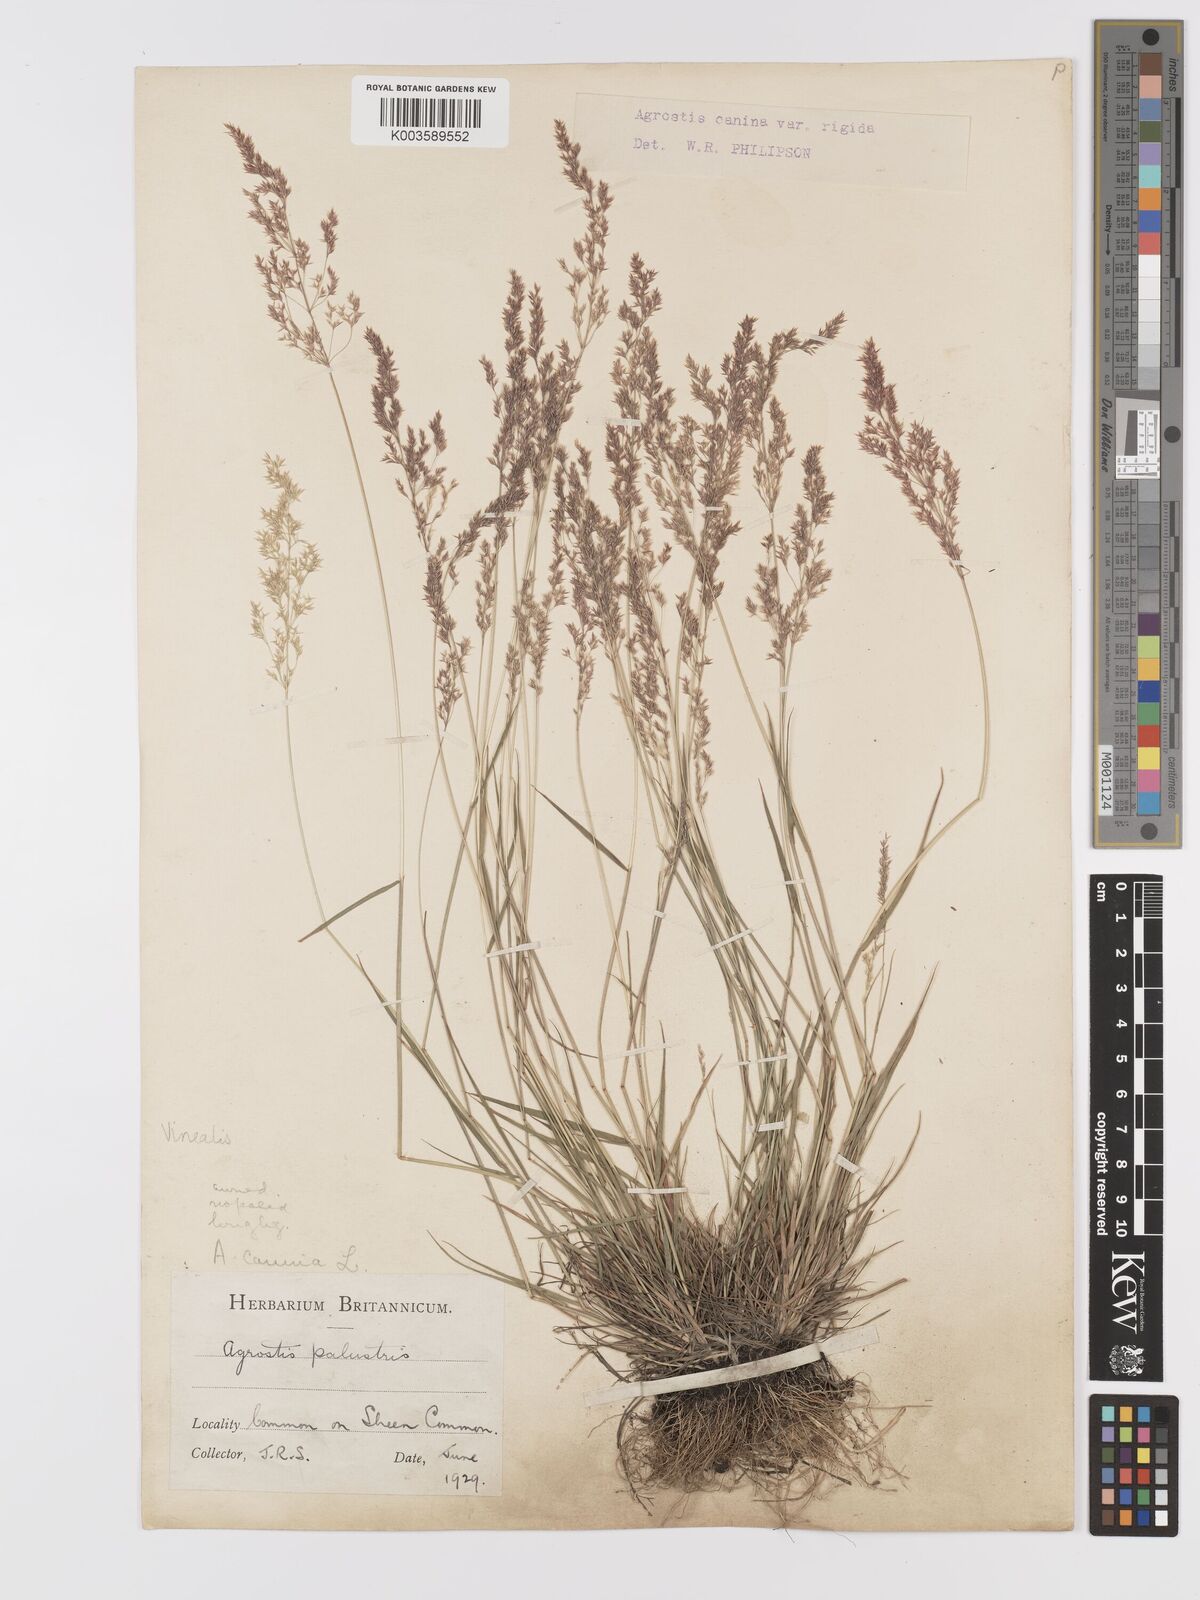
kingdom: Plantae
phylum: Tracheophyta
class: Liliopsida
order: Poales
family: Poaceae
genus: Agrostis
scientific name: Agrostis
